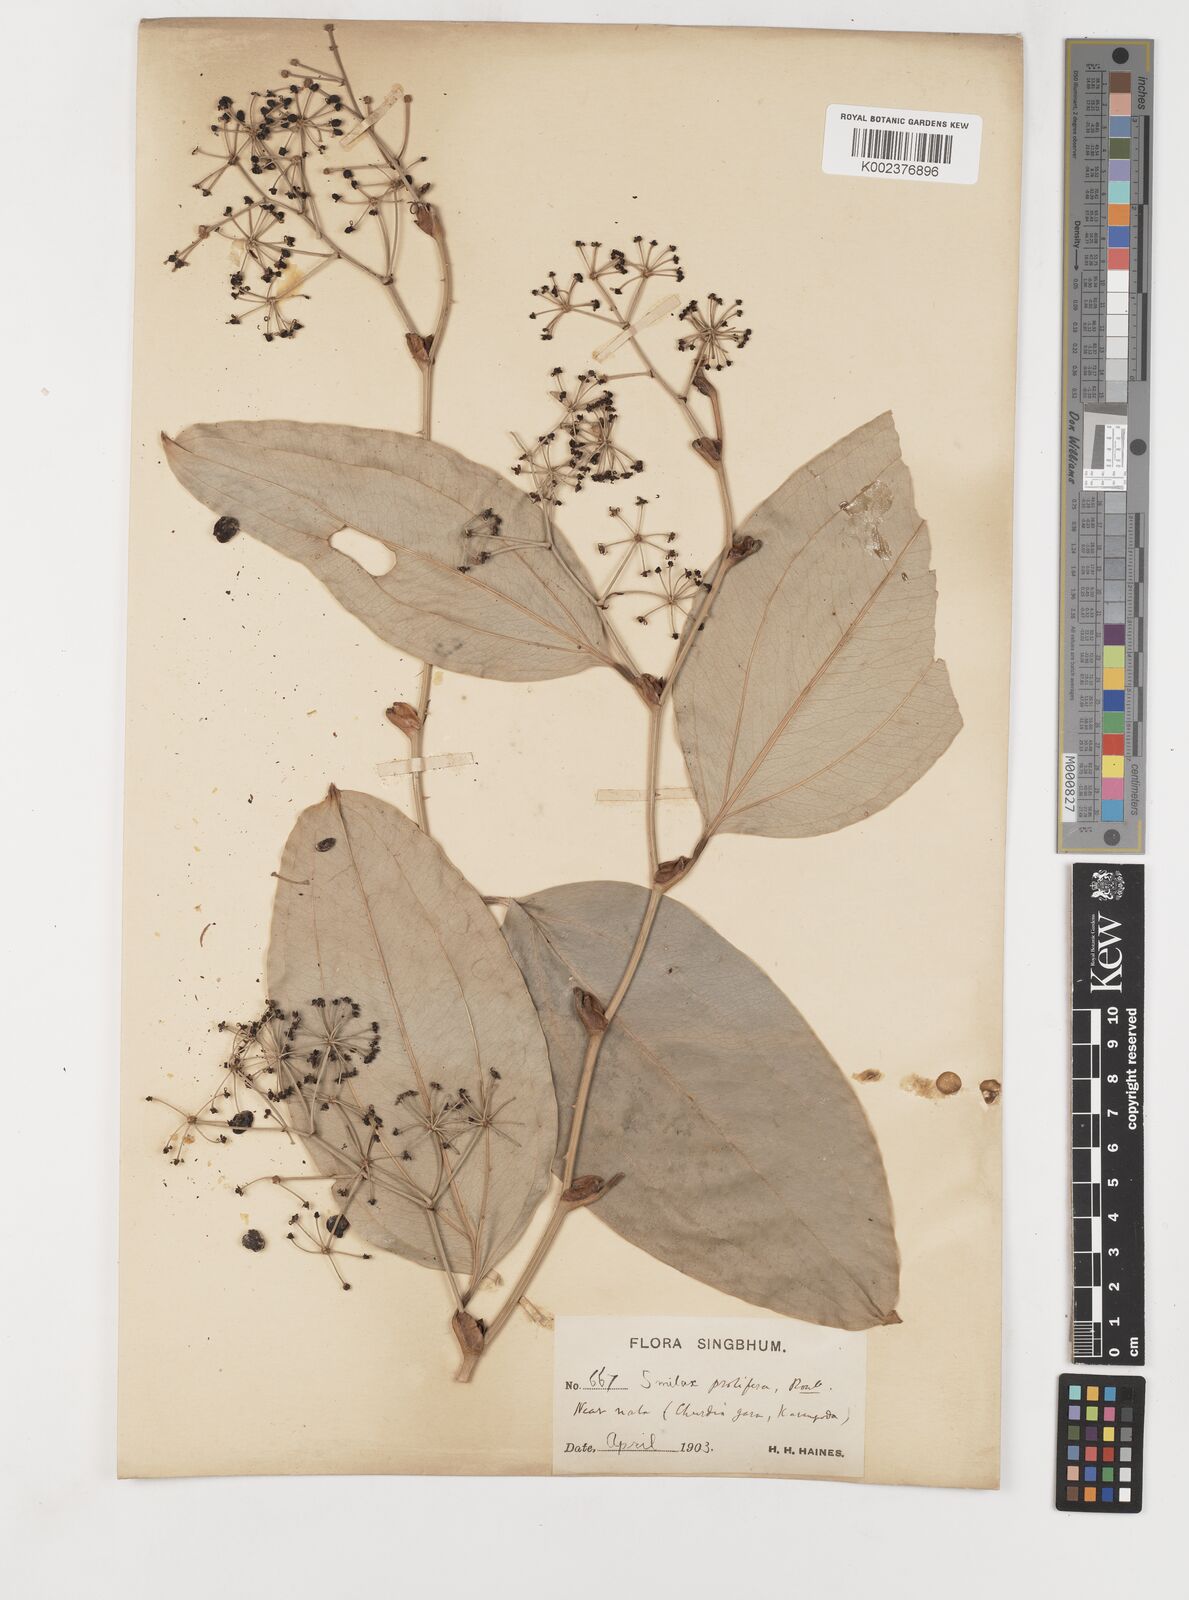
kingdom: Plantae
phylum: Tracheophyta
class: Liliopsida
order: Liliales
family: Smilacaceae
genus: Smilax
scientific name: Smilax prolifera
